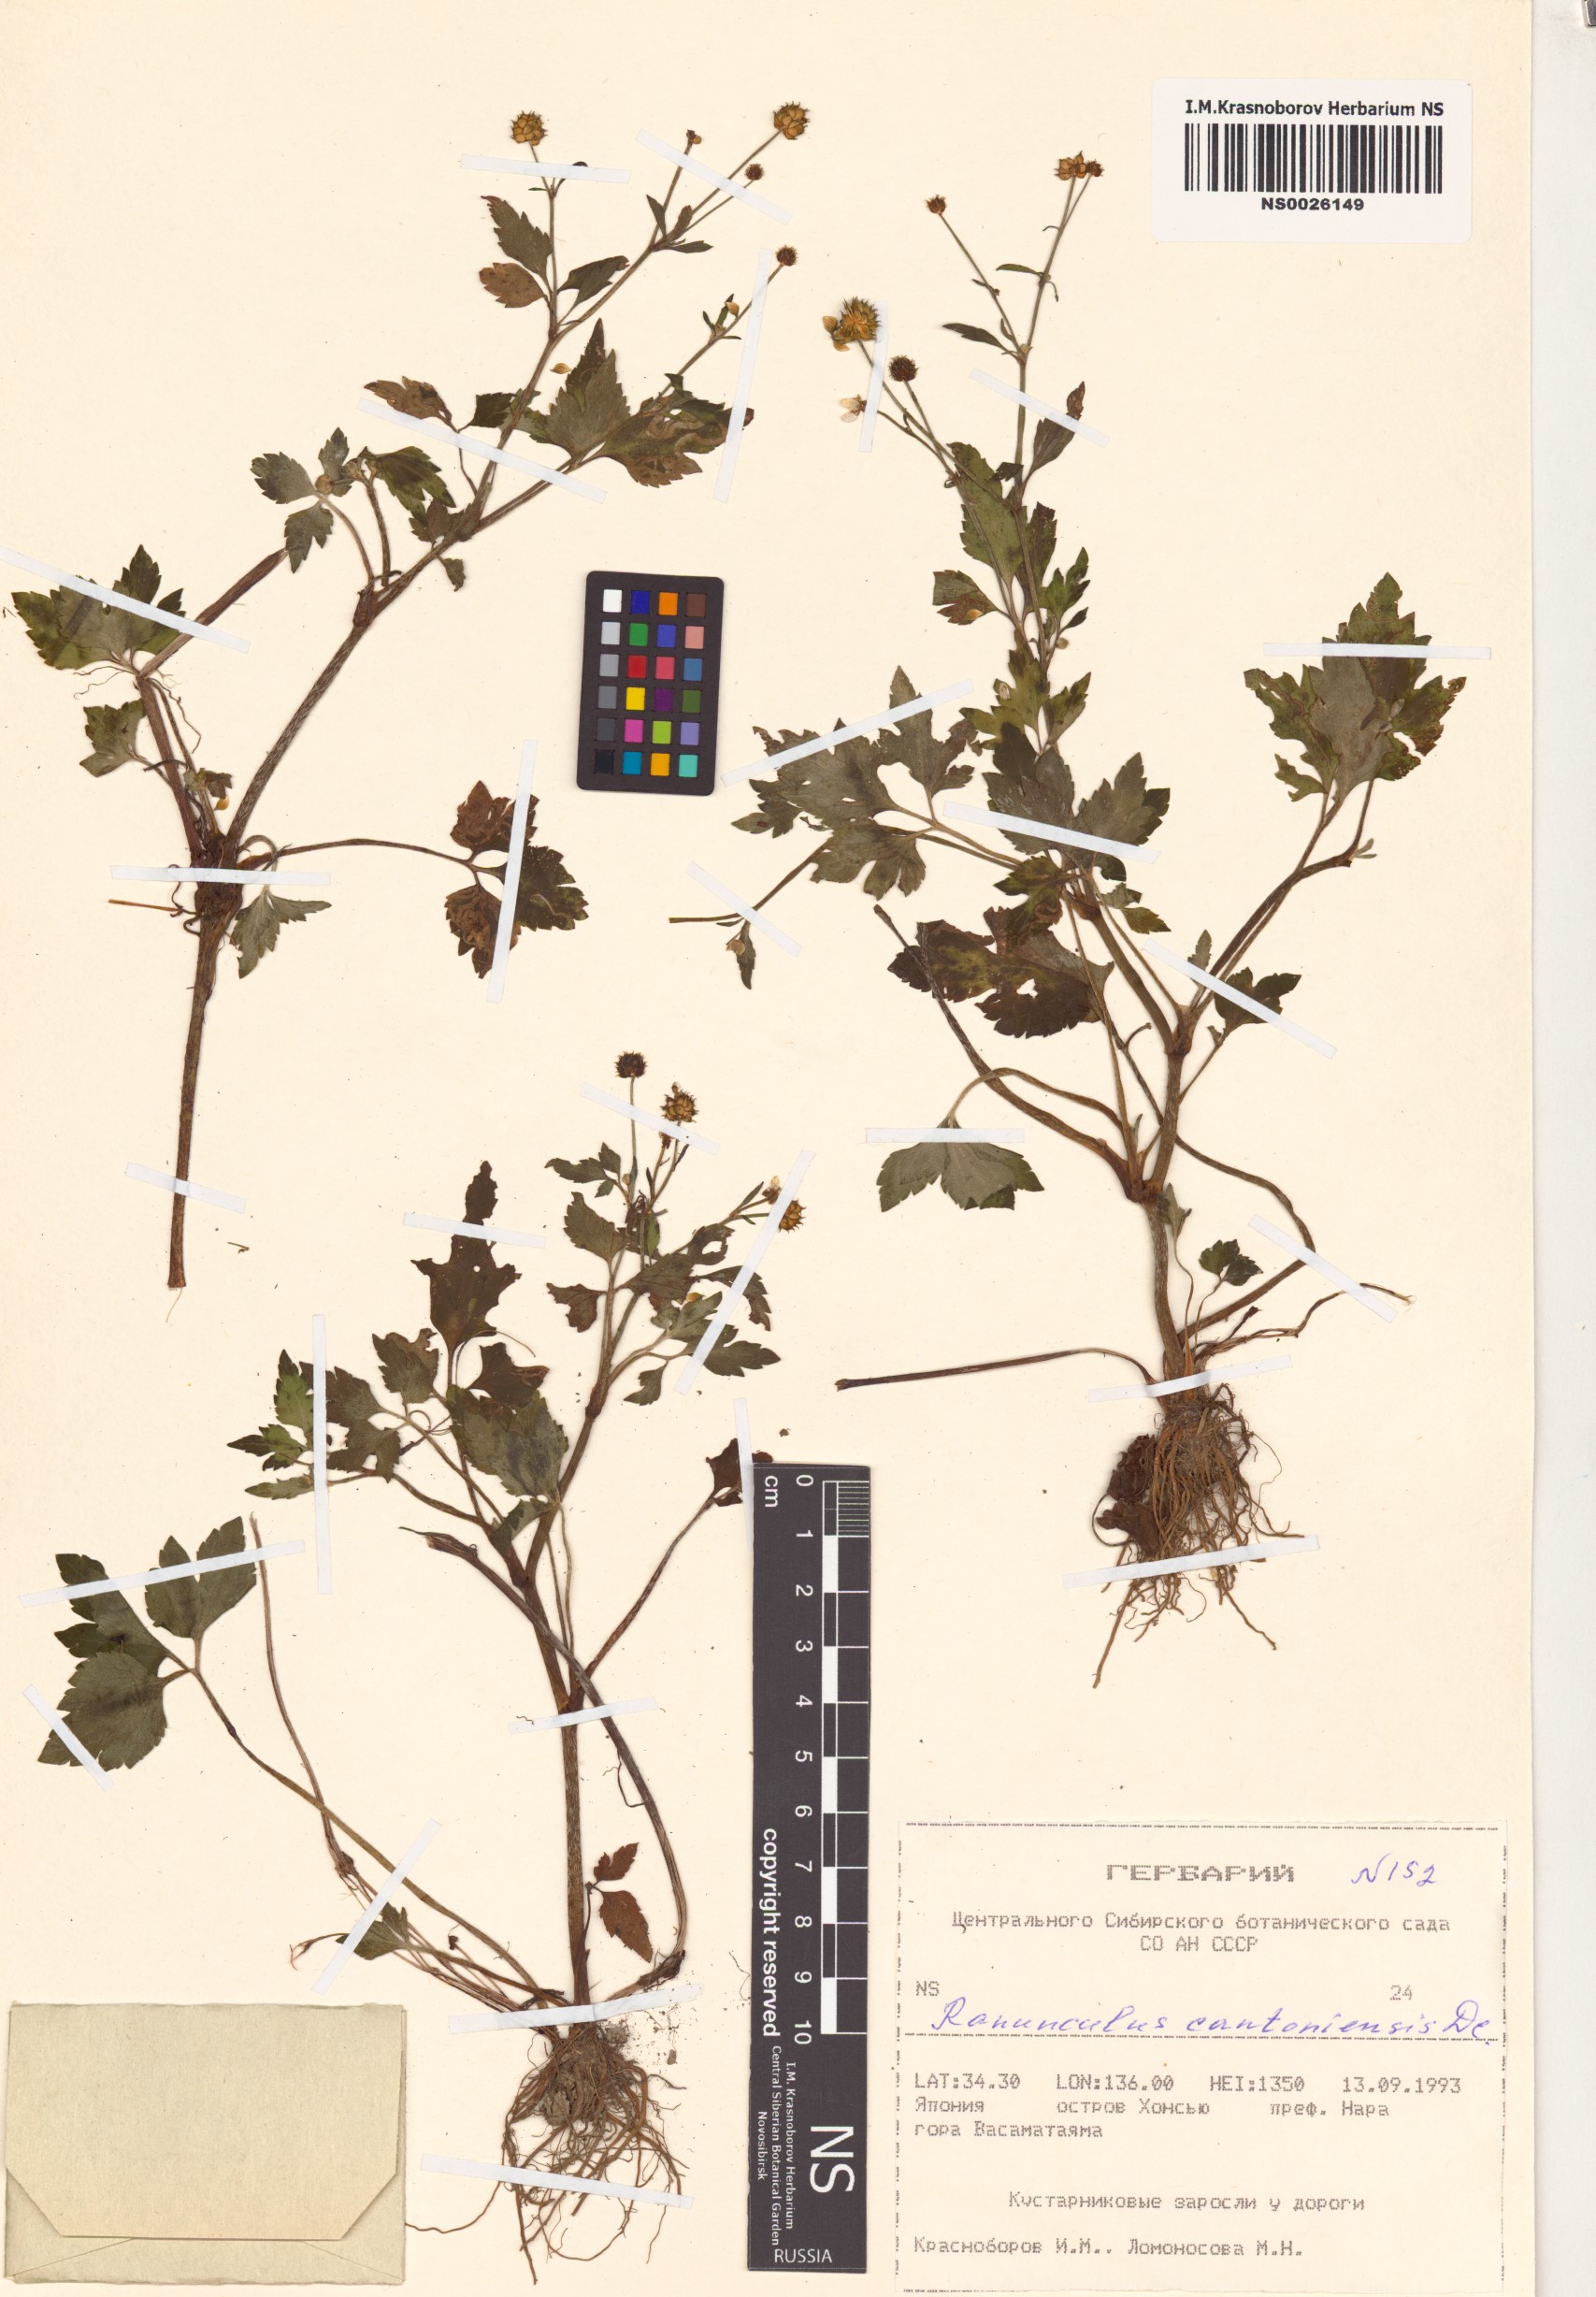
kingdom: Plantae
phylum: Tracheophyta
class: Magnoliopsida
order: Ranunculales
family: Ranunculaceae
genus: Ranunculus
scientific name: Ranunculus cantoniensis
